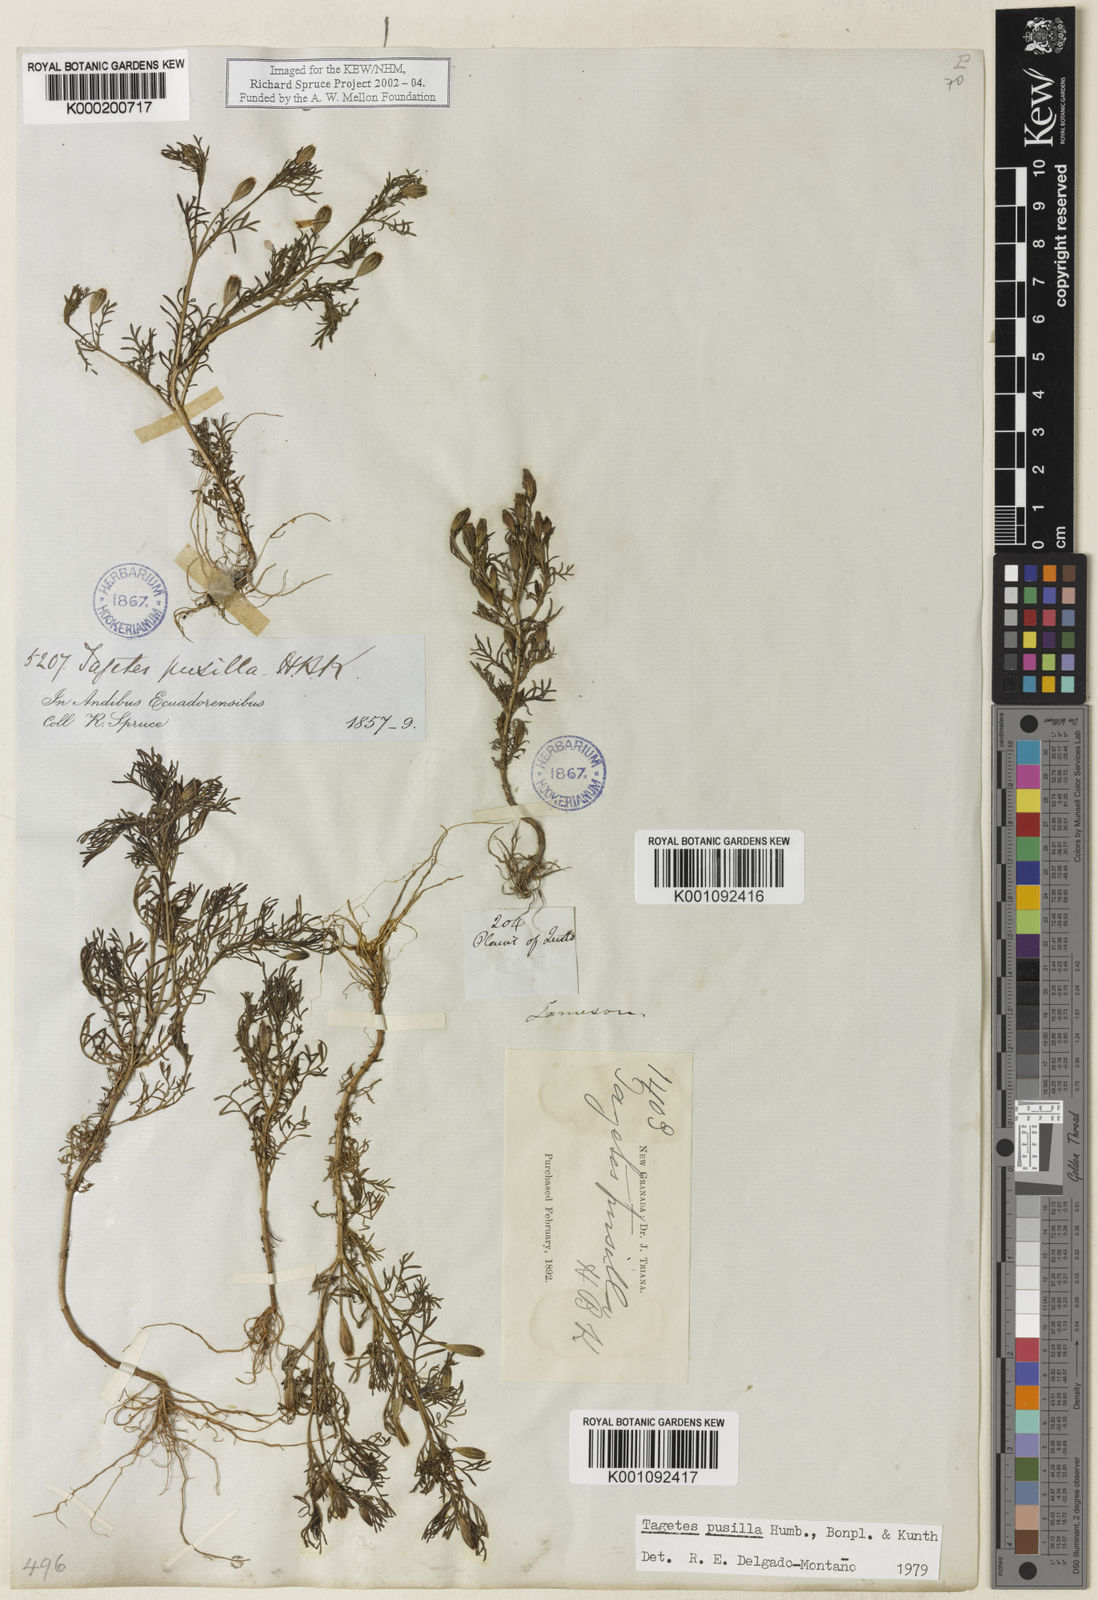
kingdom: Plantae
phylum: Tracheophyta
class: Magnoliopsida
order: Asterales
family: Asteraceae
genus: Tagetes
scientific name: Tagetes filifolia
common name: Lesser marigold
